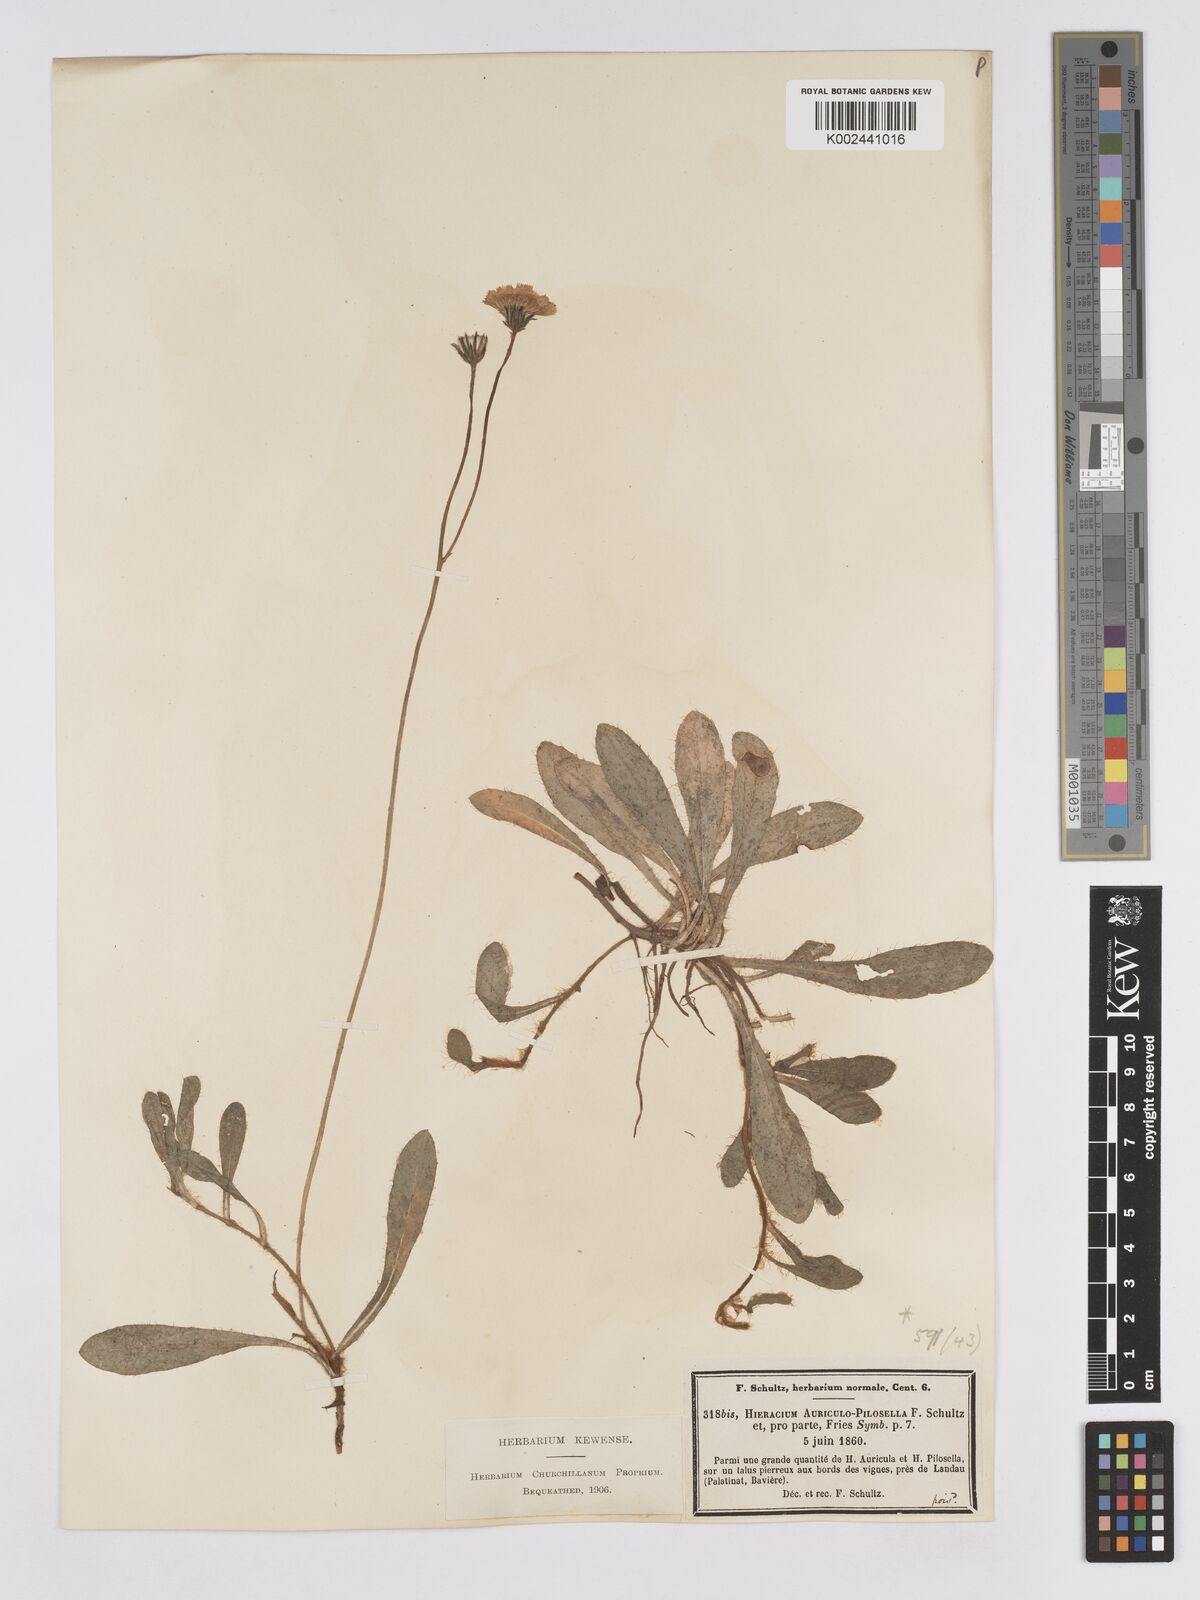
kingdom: Plantae
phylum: Tracheophyta
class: Magnoliopsida
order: Asterales
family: Asteraceae
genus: Pilosella
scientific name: Pilosella schultesii
